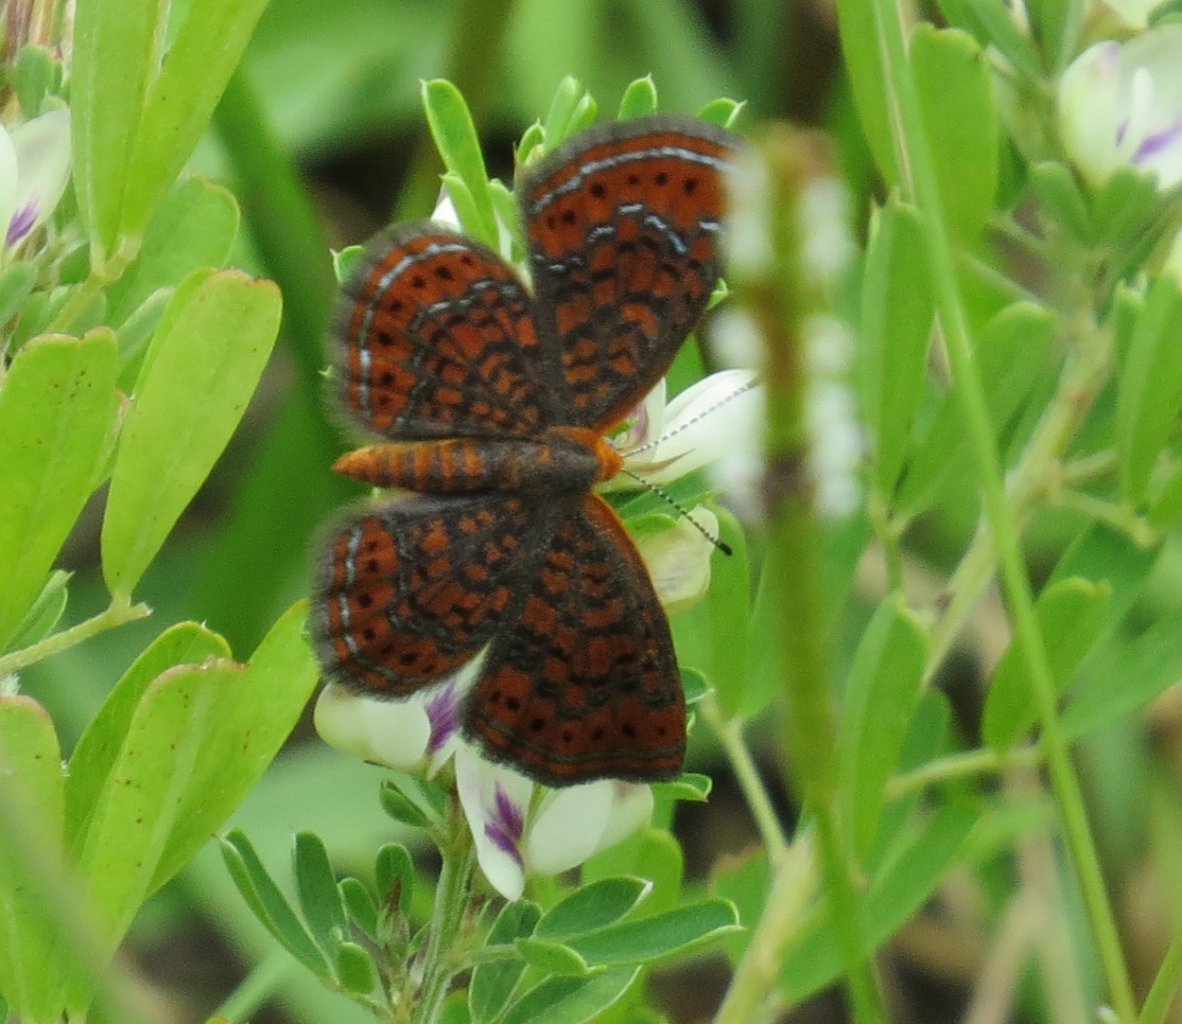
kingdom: Animalia
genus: Calephelis
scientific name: Calephelis virginiensis
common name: Little Metalmark
